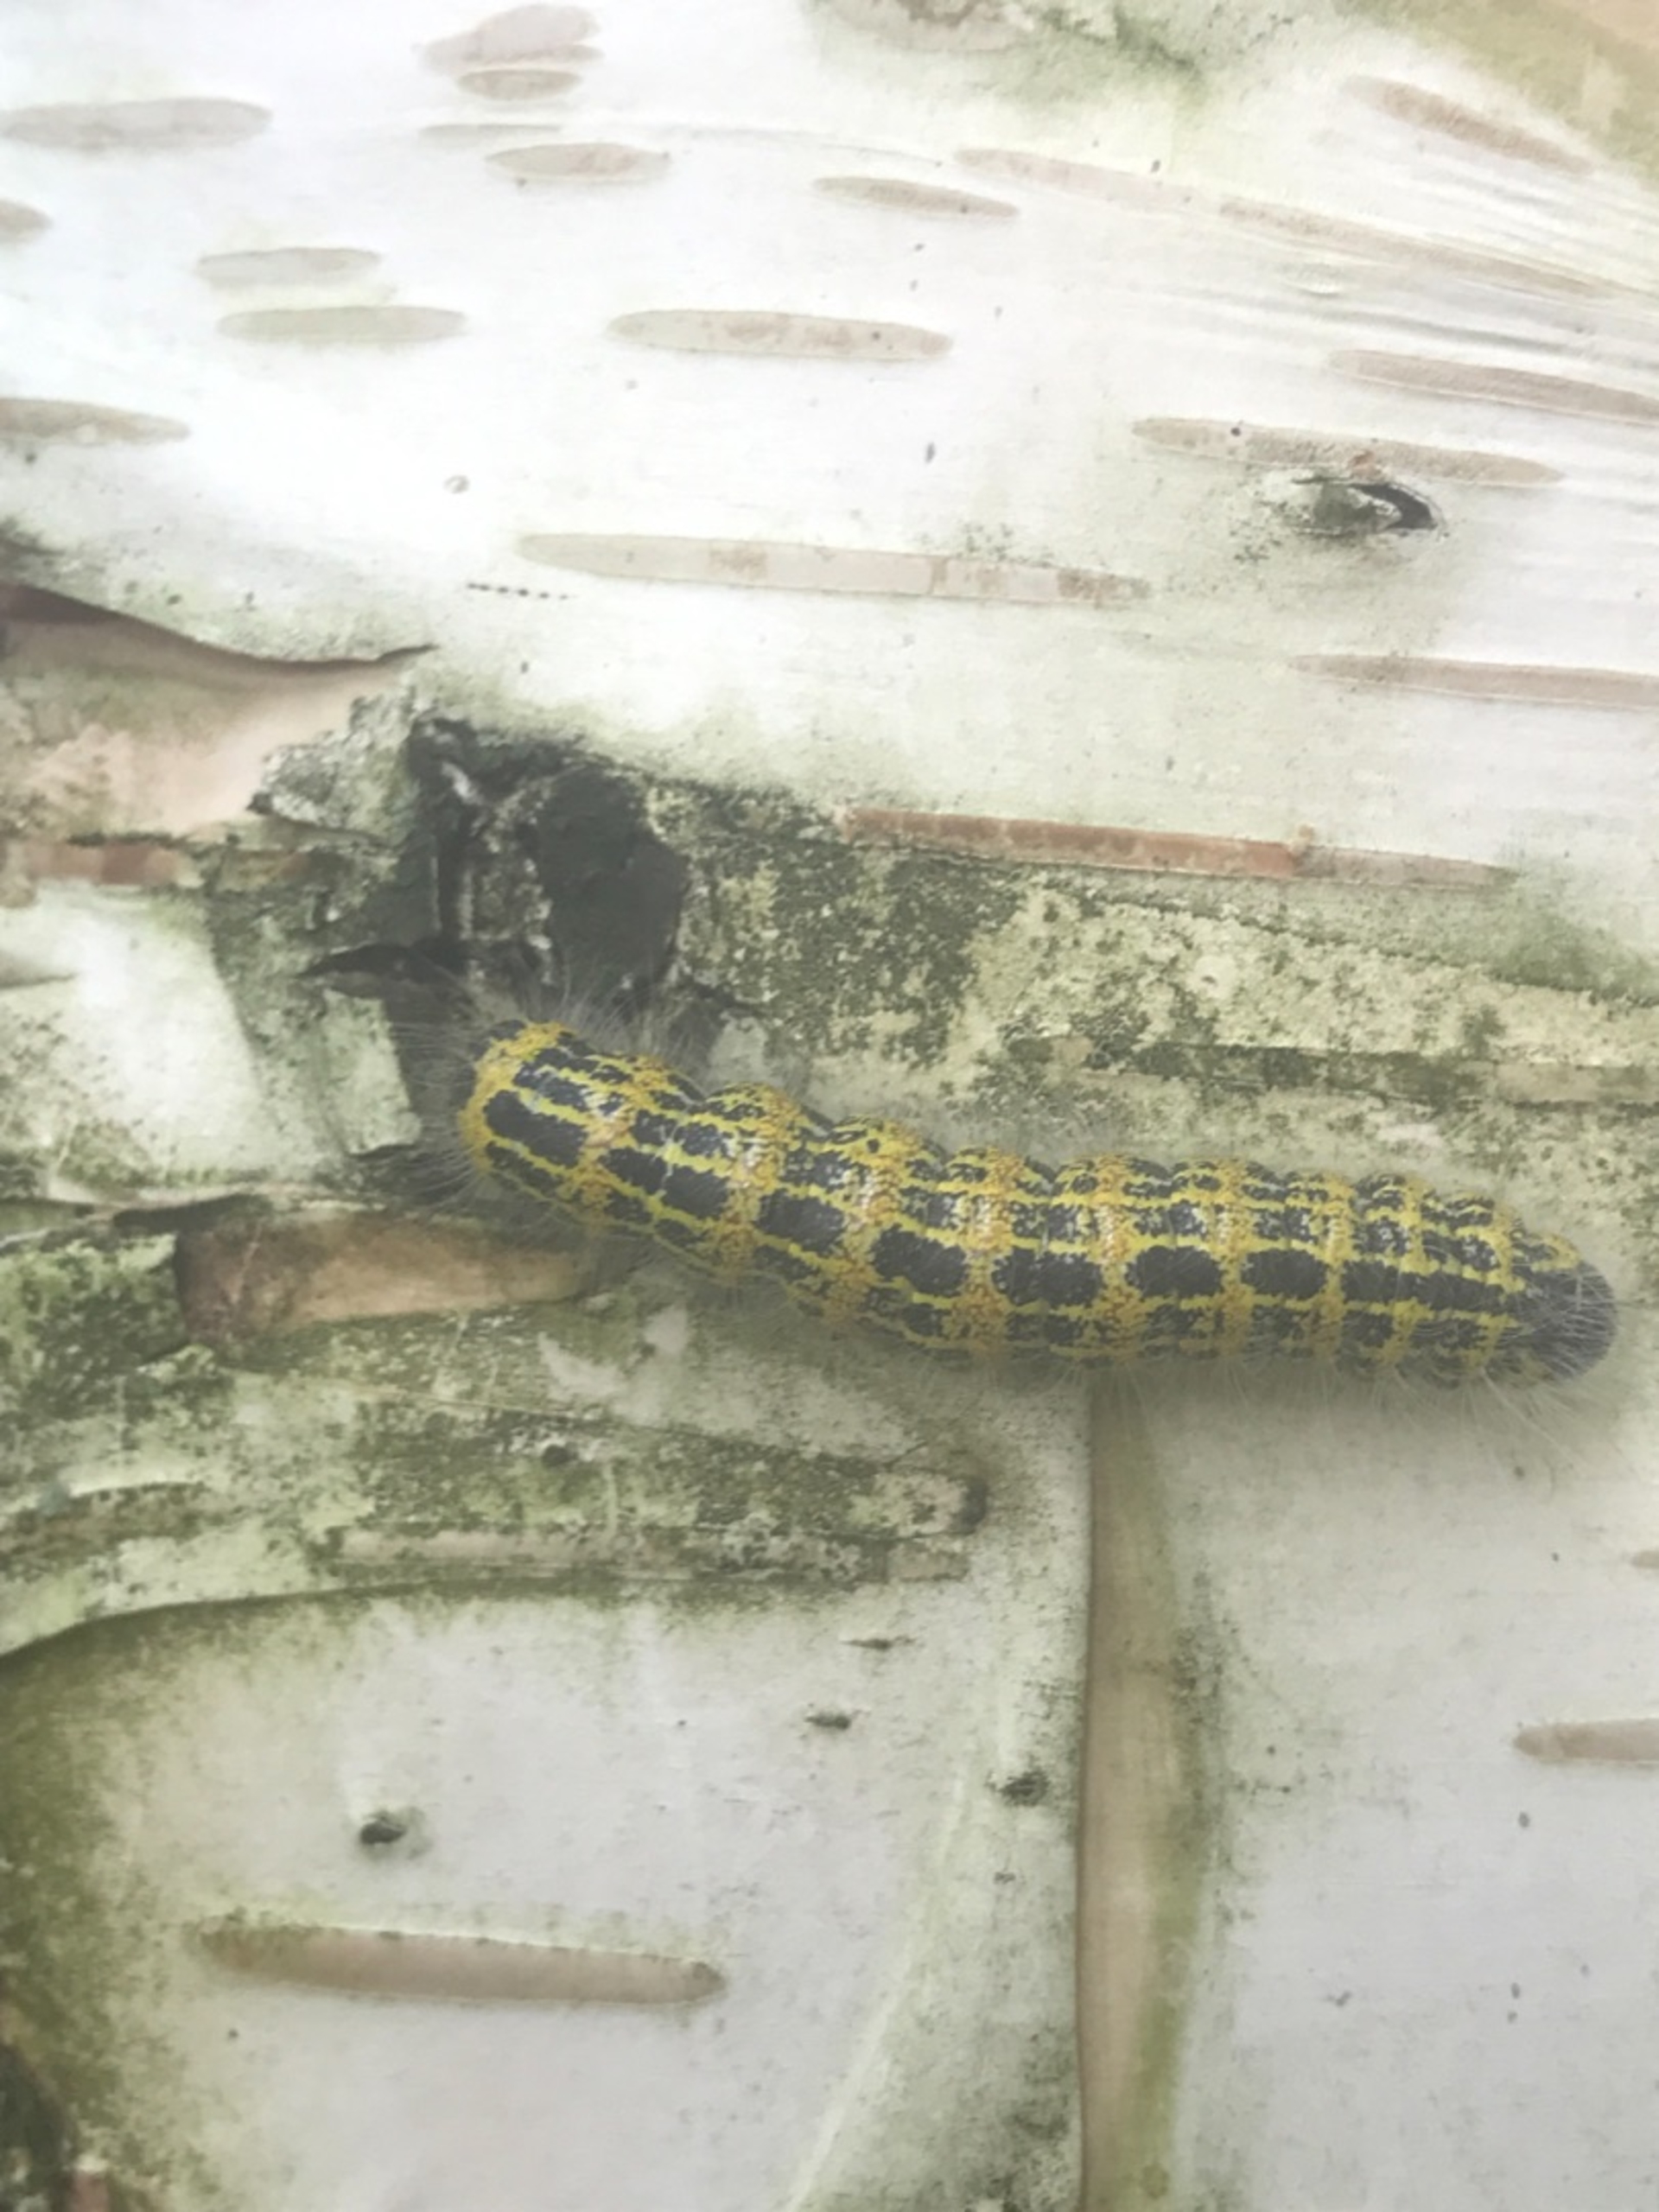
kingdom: Animalia
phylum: Arthropoda
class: Insecta
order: Lepidoptera
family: Notodontidae
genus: Phalera
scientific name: Phalera bucephala
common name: Måneplet
